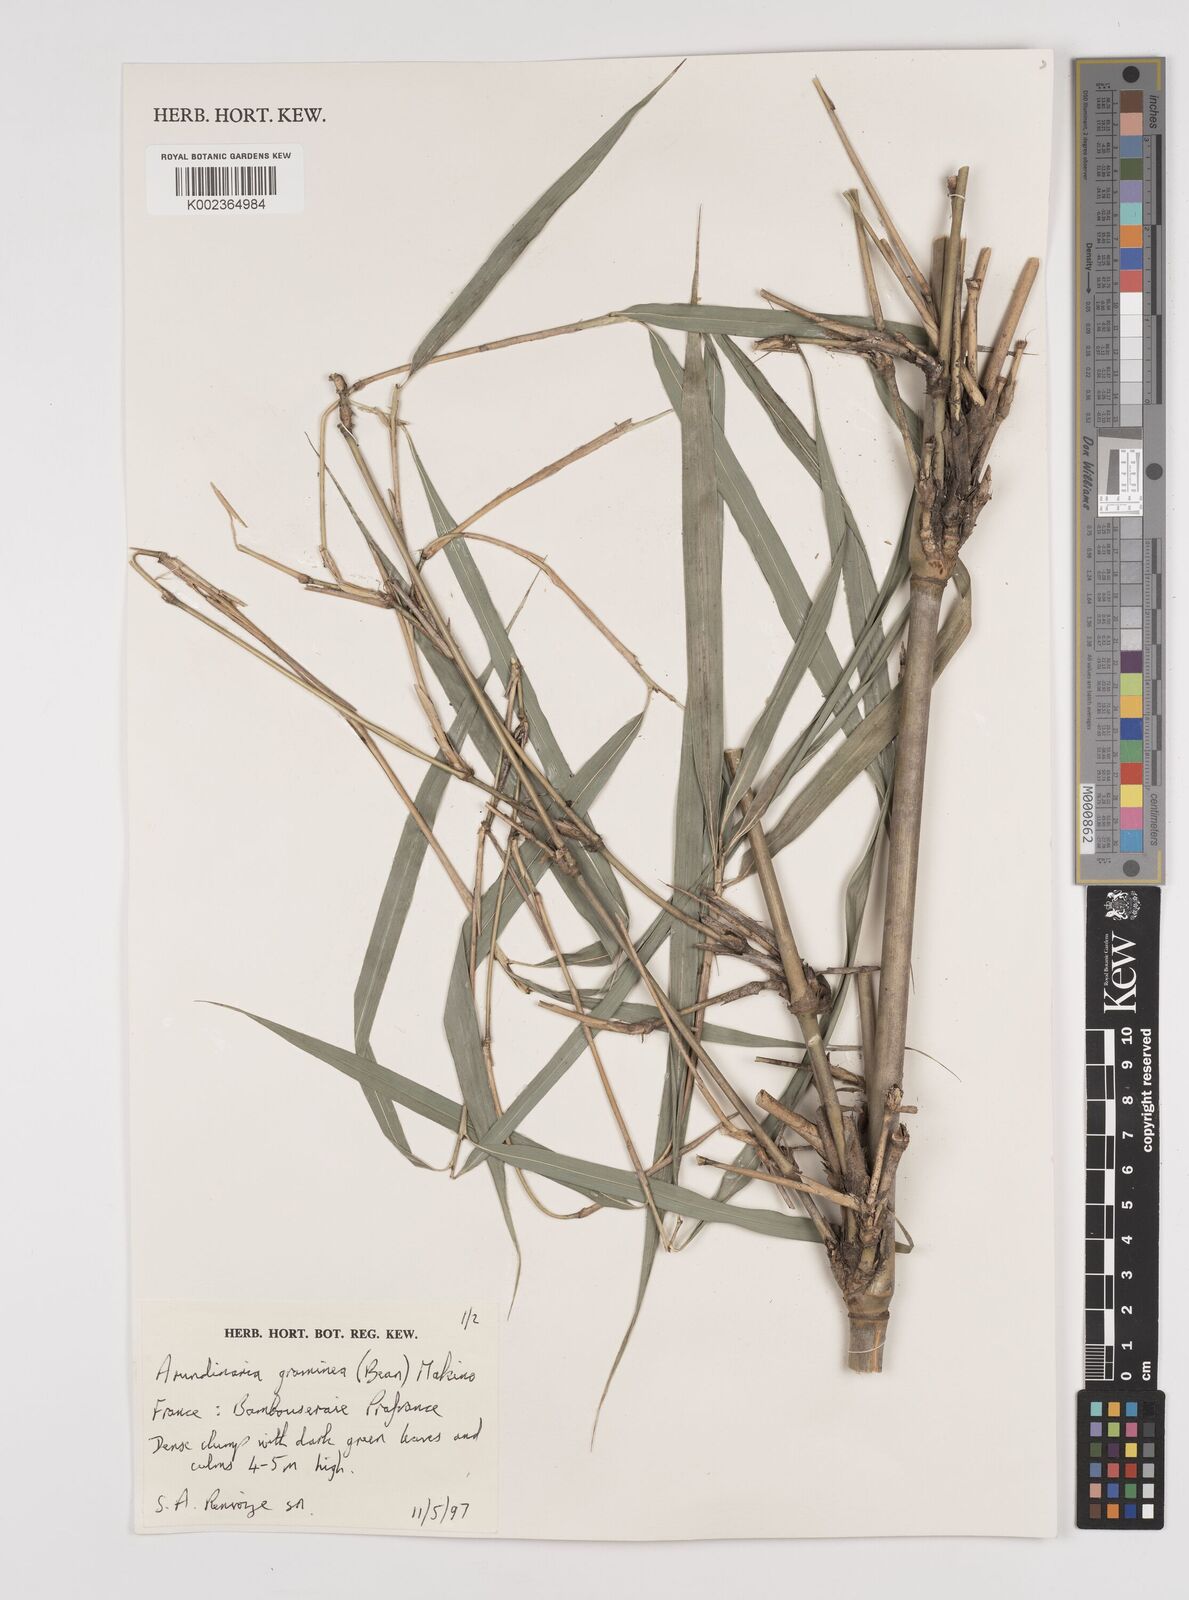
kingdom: Plantae
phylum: Tracheophyta
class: Liliopsida
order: Poales
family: Poaceae
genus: Pleioblastus
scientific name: Pleioblastus gramineus
